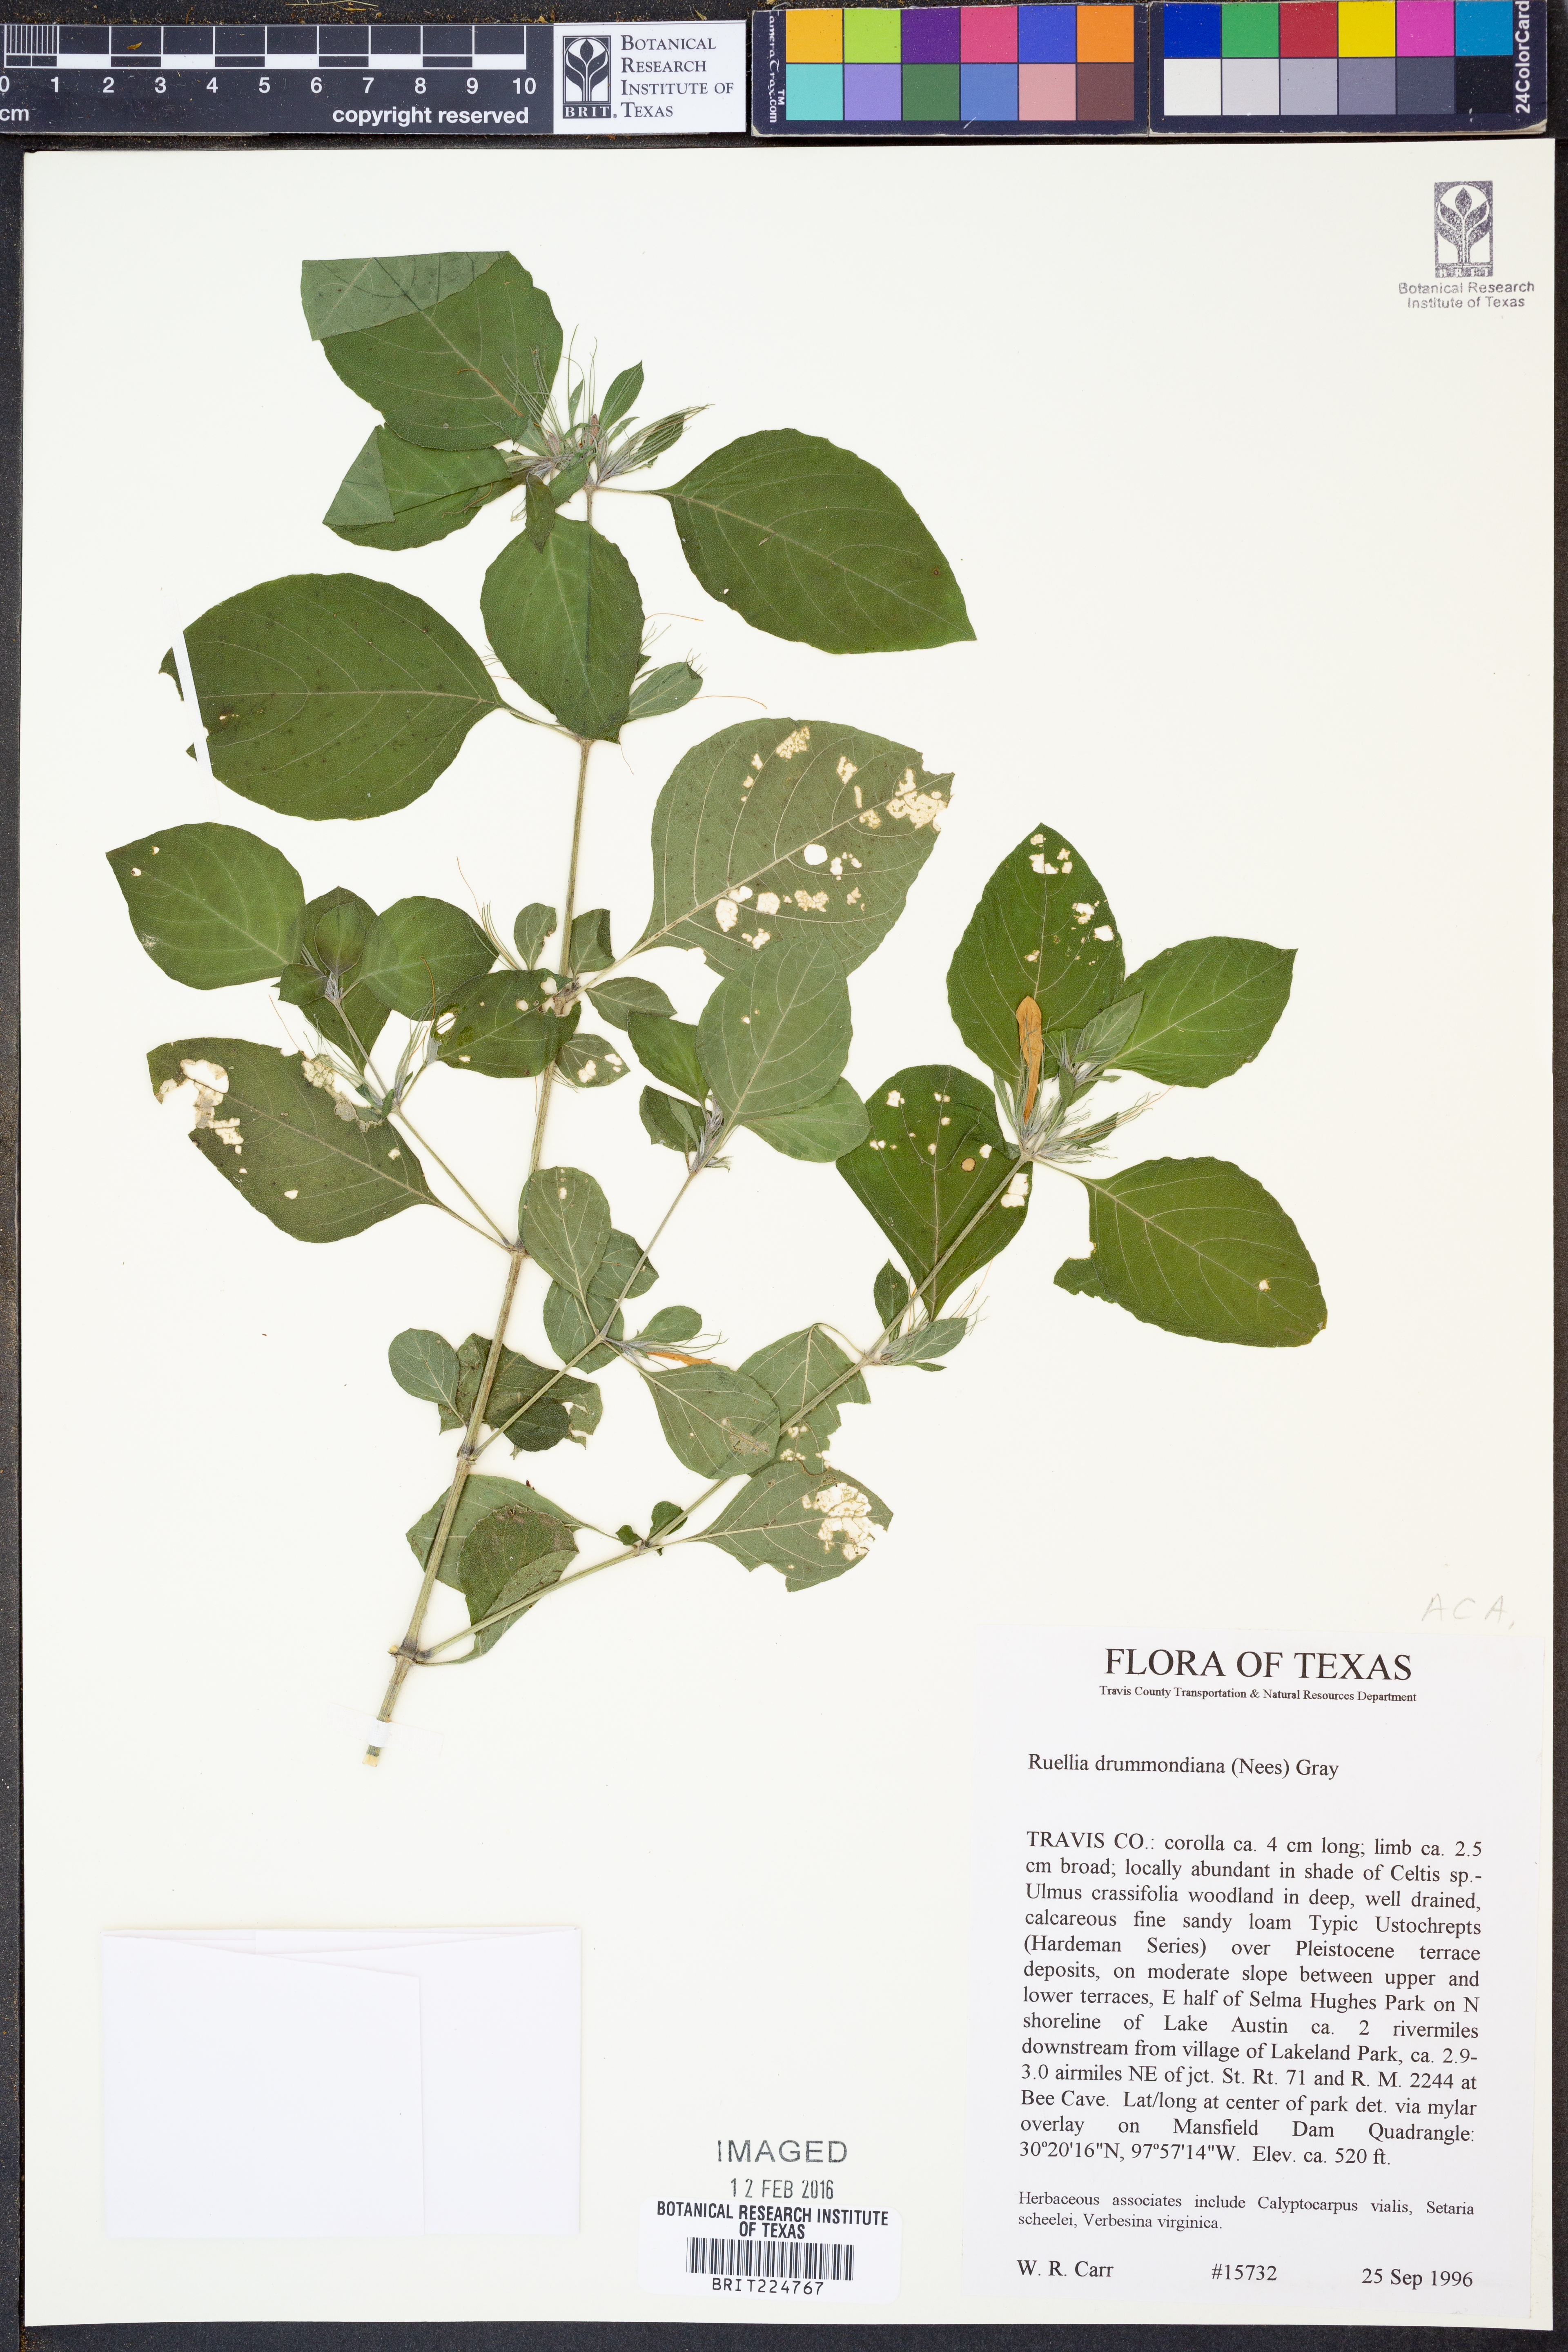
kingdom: Plantae
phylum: Tracheophyta
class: Magnoliopsida
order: Lamiales
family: Acanthaceae
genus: Ruellia
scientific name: Ruellia drummondiana
